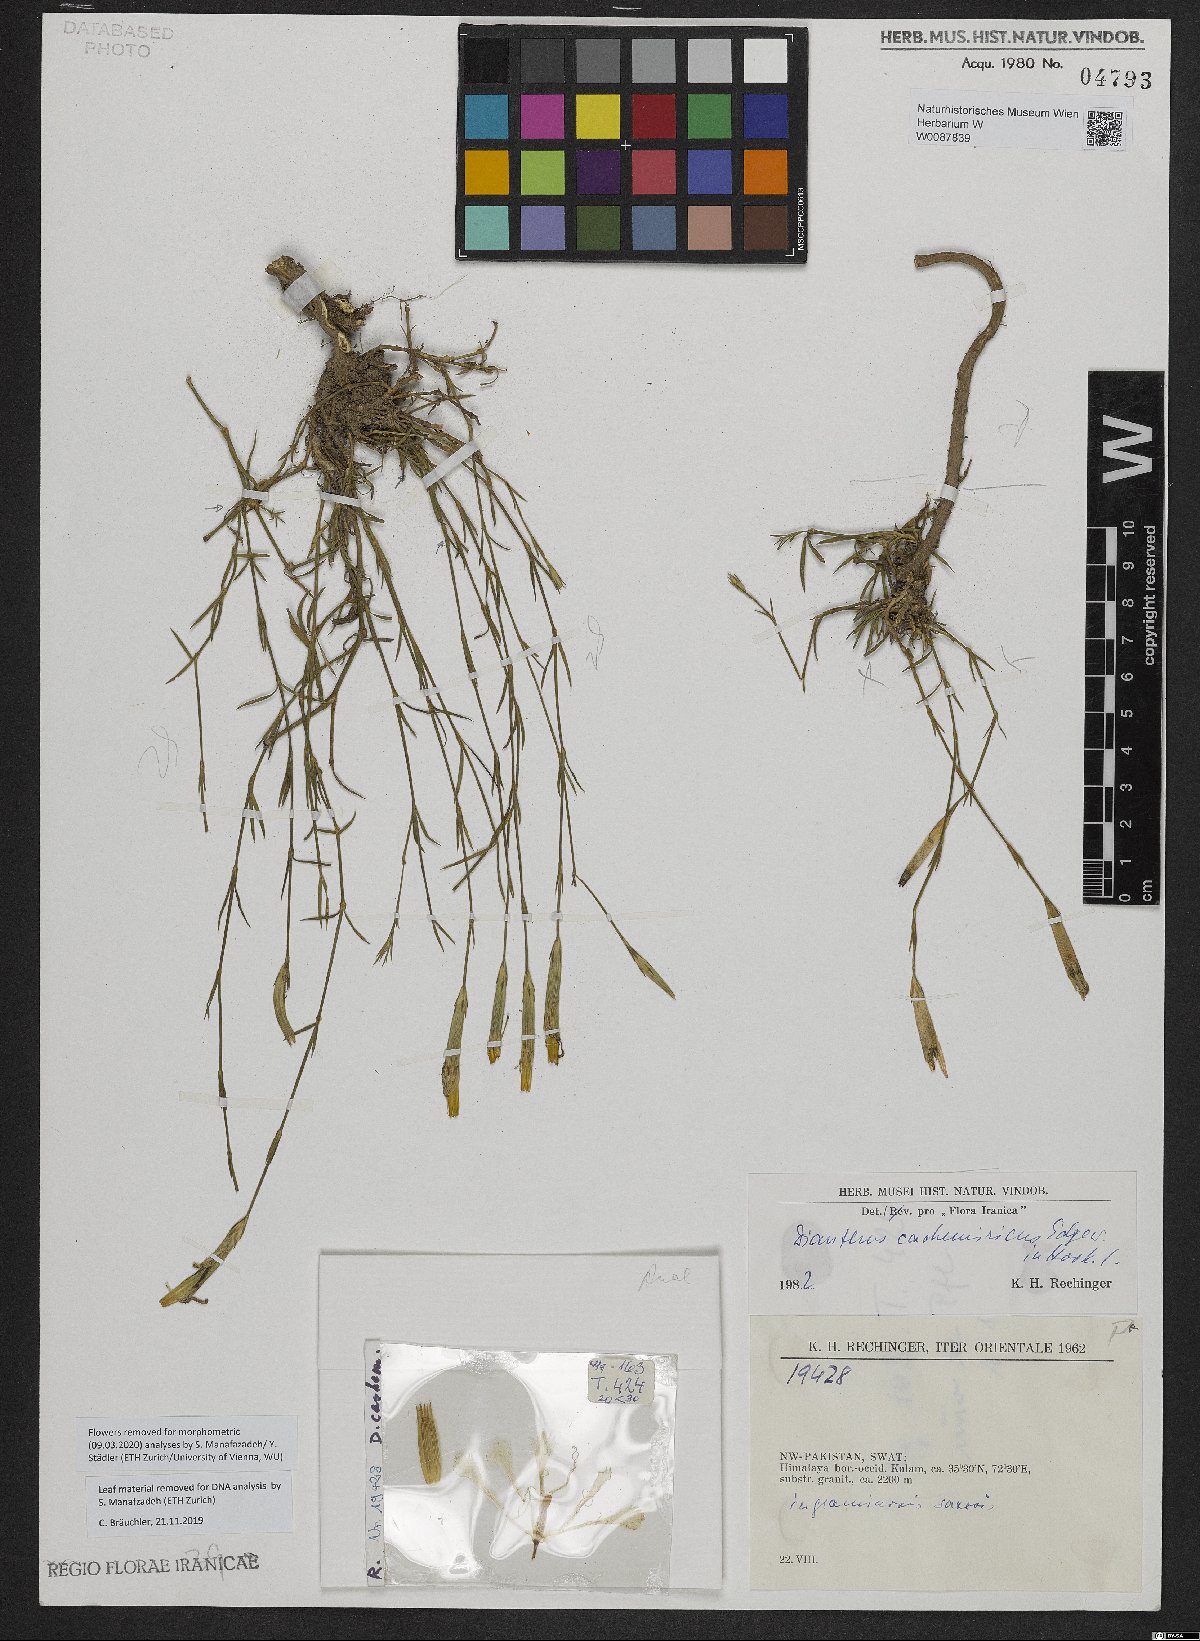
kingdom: Plantae
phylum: Tracheophyta
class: Magnoliopsida
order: Caryophyllales
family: Caryophyllaceae
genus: Dianthus
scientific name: Dianthus cachemiricus
